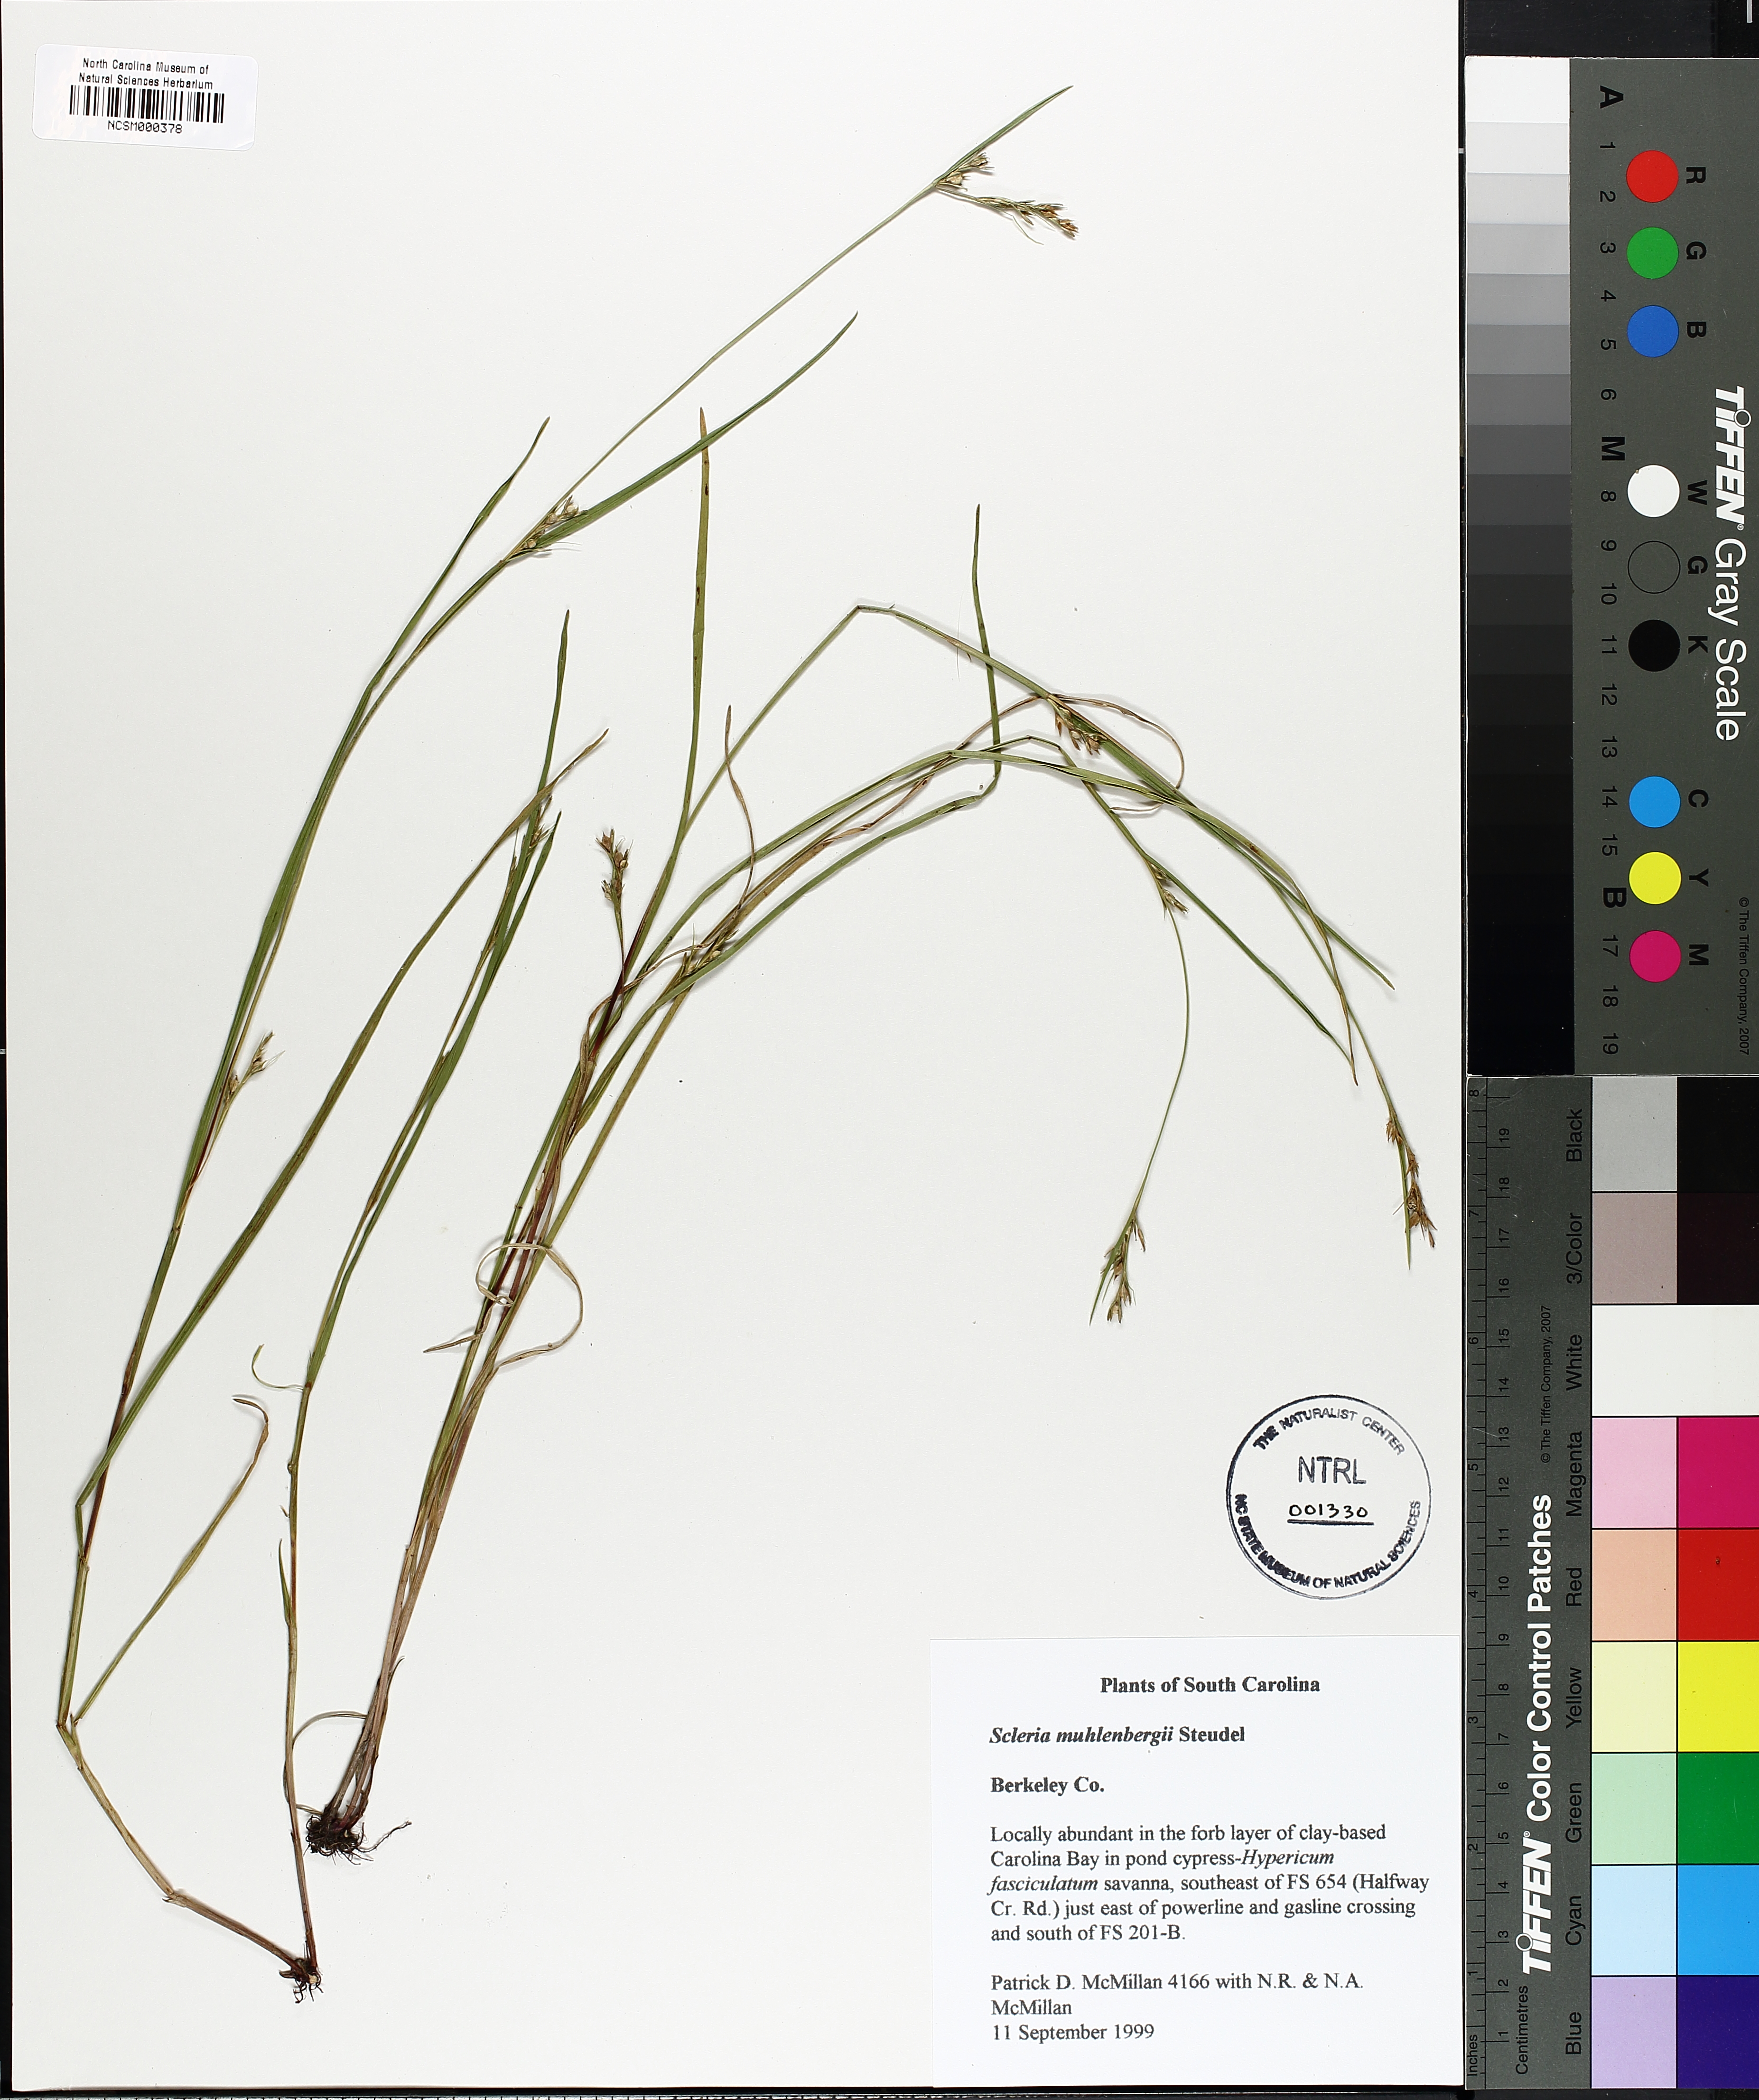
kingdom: Plantae
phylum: Tracheophyta
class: Liliopsida
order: Poales
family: Cyperaceae
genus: Scleria
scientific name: Scleria muehlenbergii
